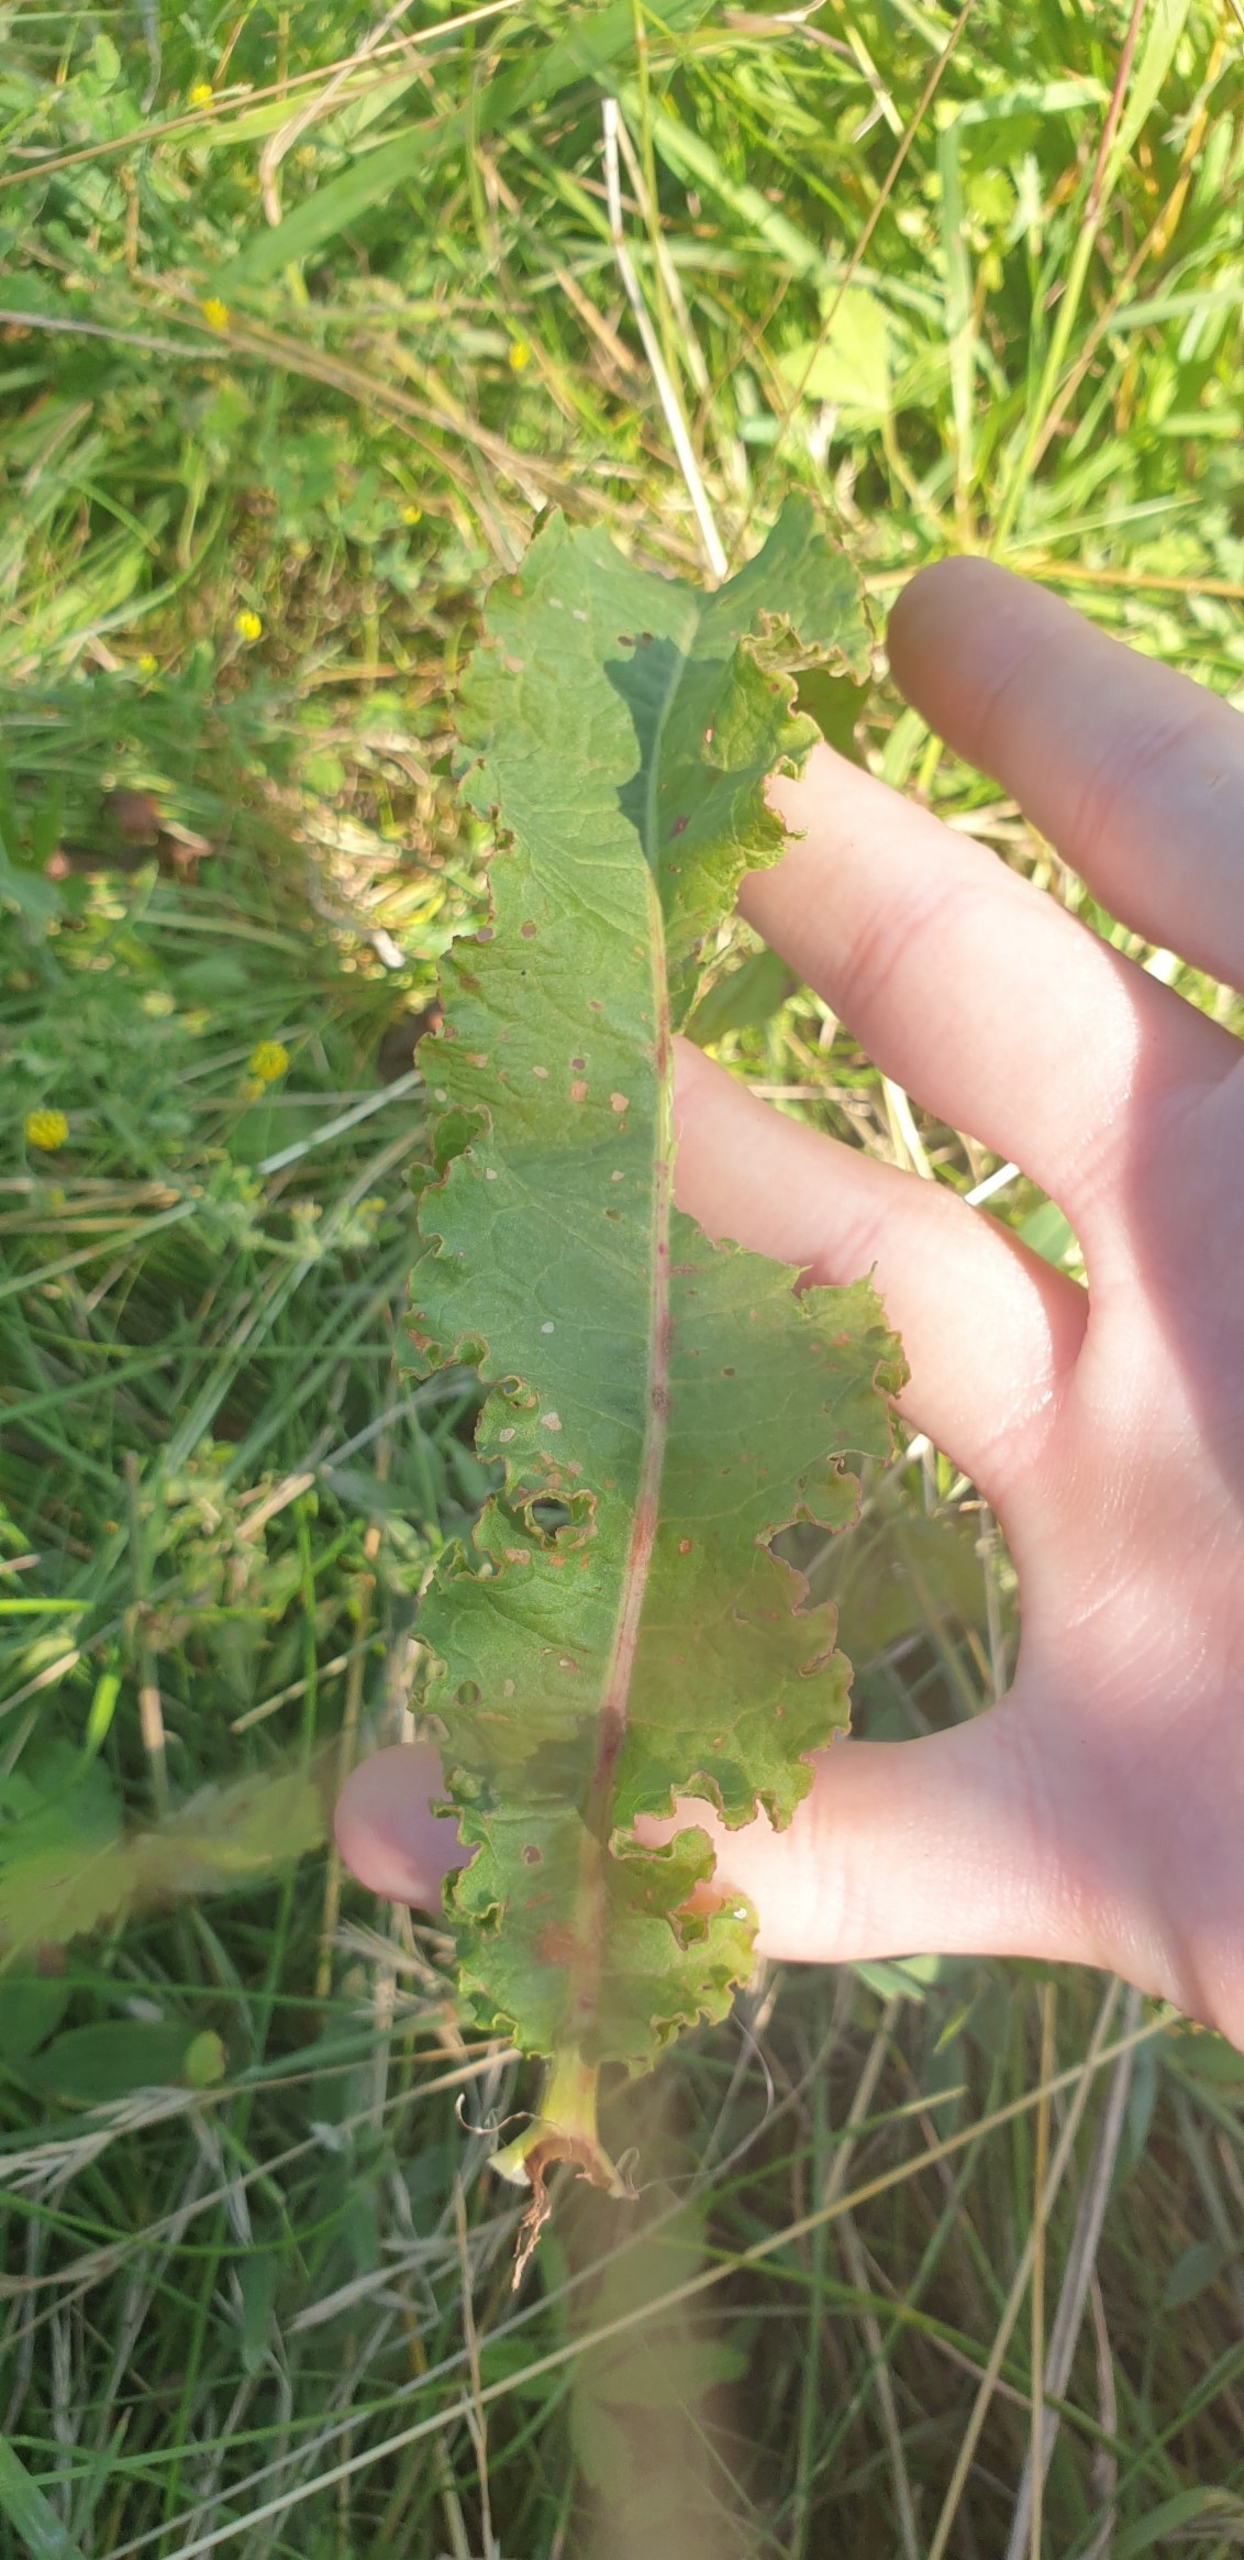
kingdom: Plantae
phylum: Tracheophyta
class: Magnoliopsida
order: Caryophyllales
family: Polygonaceae
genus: Rumex
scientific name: Rumex crispus
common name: Kruset skræppe
